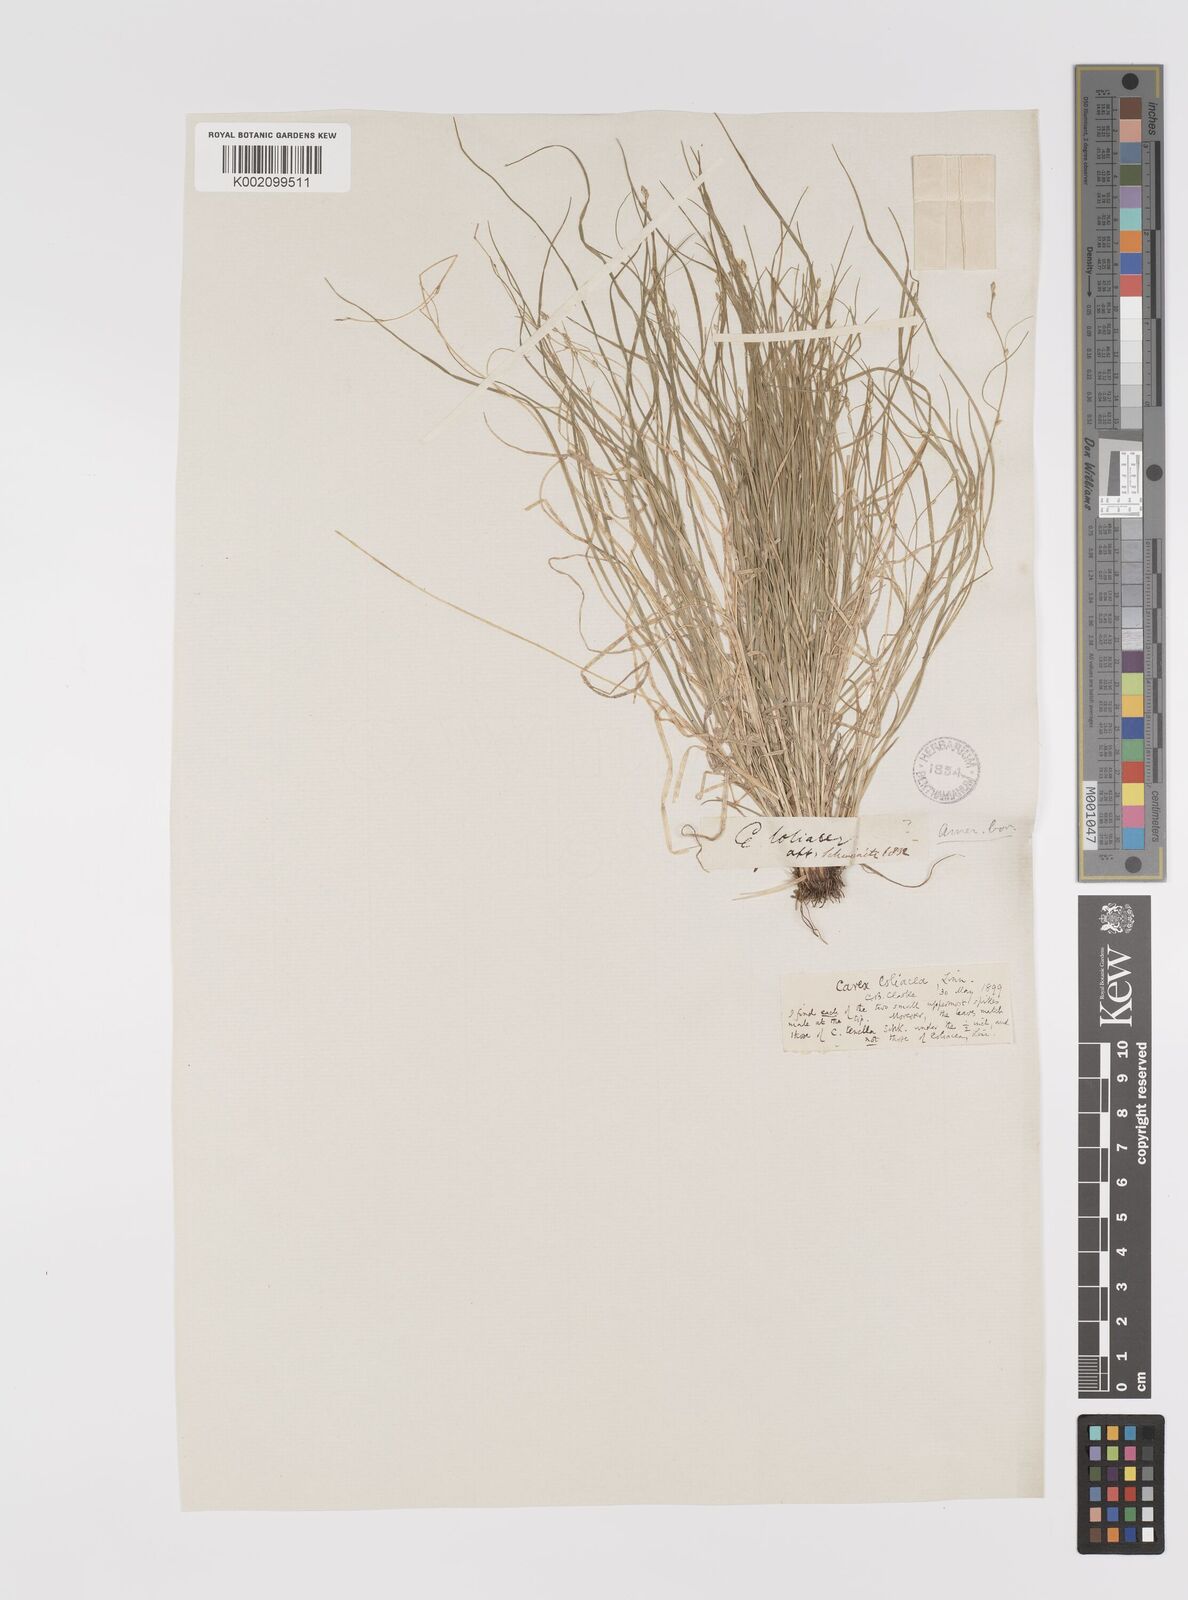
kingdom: Plantae
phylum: Tracheophyta
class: Liliopsida
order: Poales
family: Cyperaceae
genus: Carex
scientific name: Carex loliacea
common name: Ryegrass sedge
